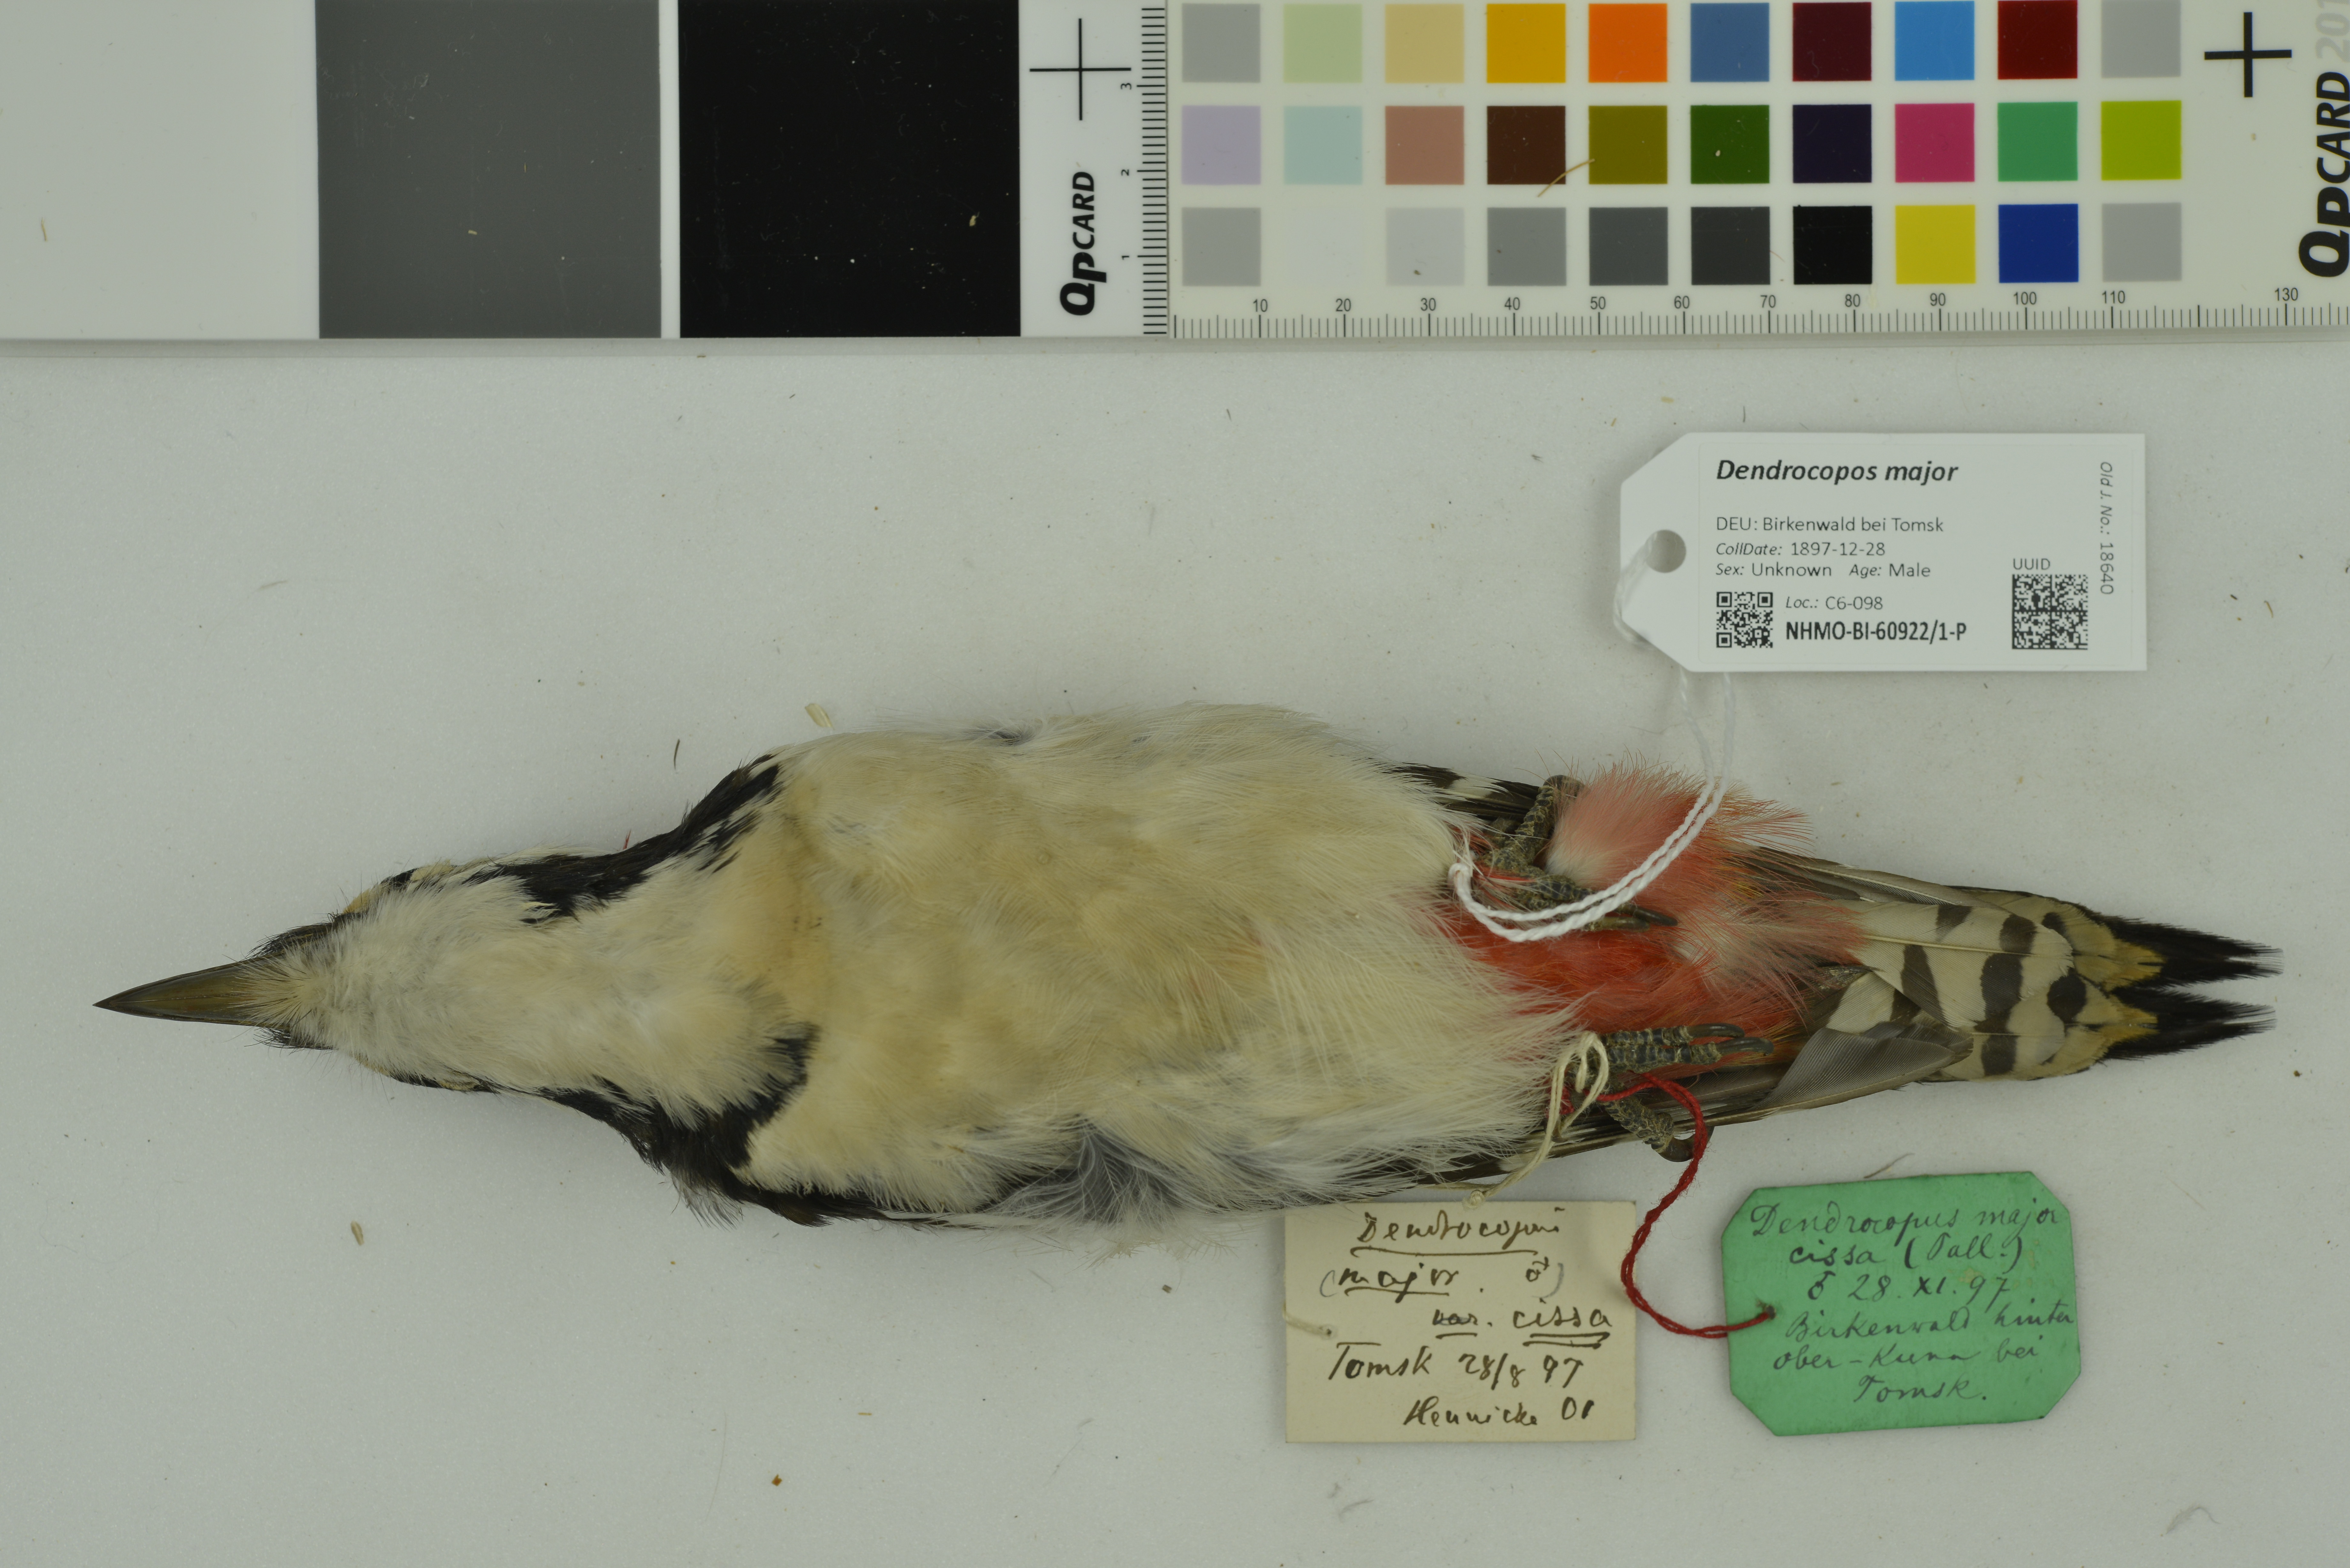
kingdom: Animalia
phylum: Chordata
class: Aves
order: Piciformes
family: Picidae
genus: Dendrocopos
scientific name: Dendrocopos major
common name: Great spotted woodpecker
